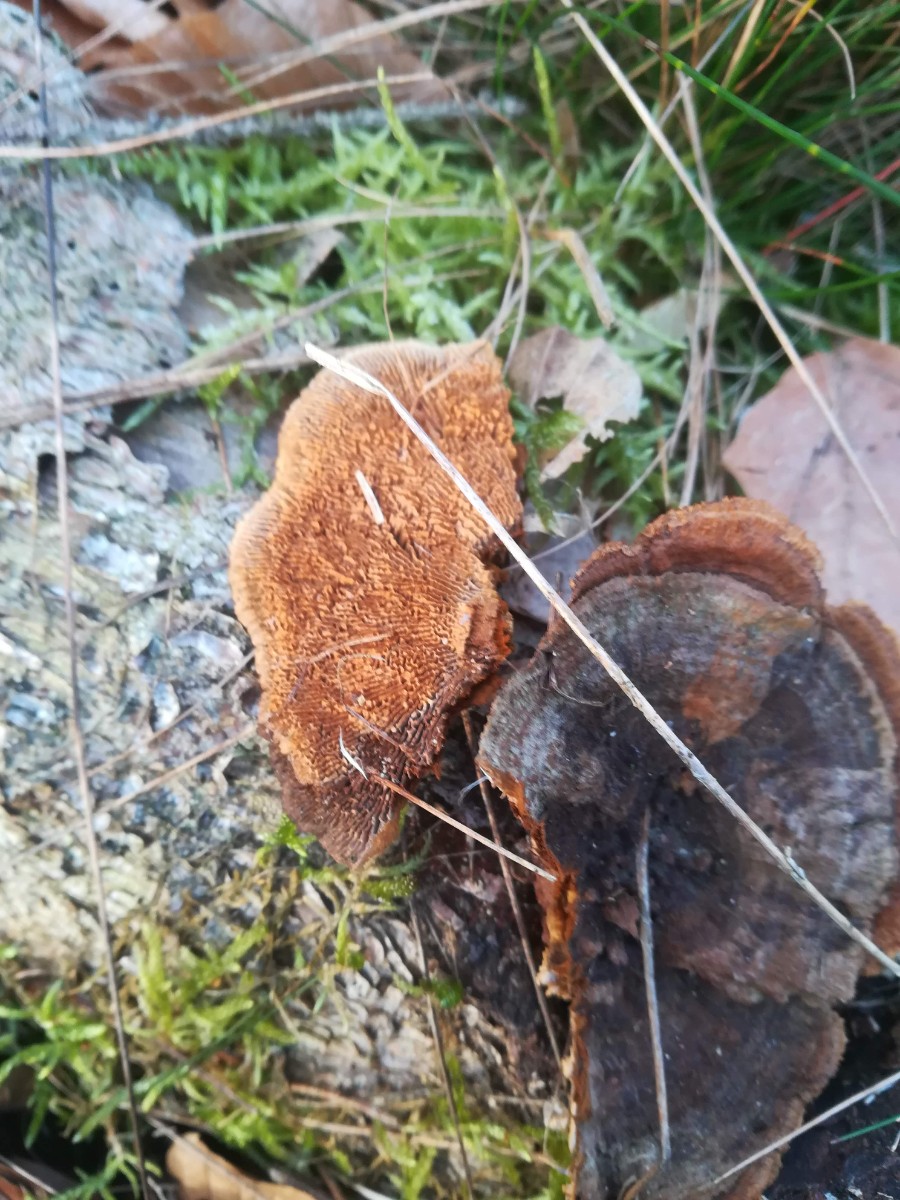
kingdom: Fungi
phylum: Basidiomycota
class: Agaricomycetes
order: Gloeophyllales
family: Gloeophyllaceae
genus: Gloeophyllum
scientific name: Gloeophyllum sepiarium
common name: fyrre-korkhat
